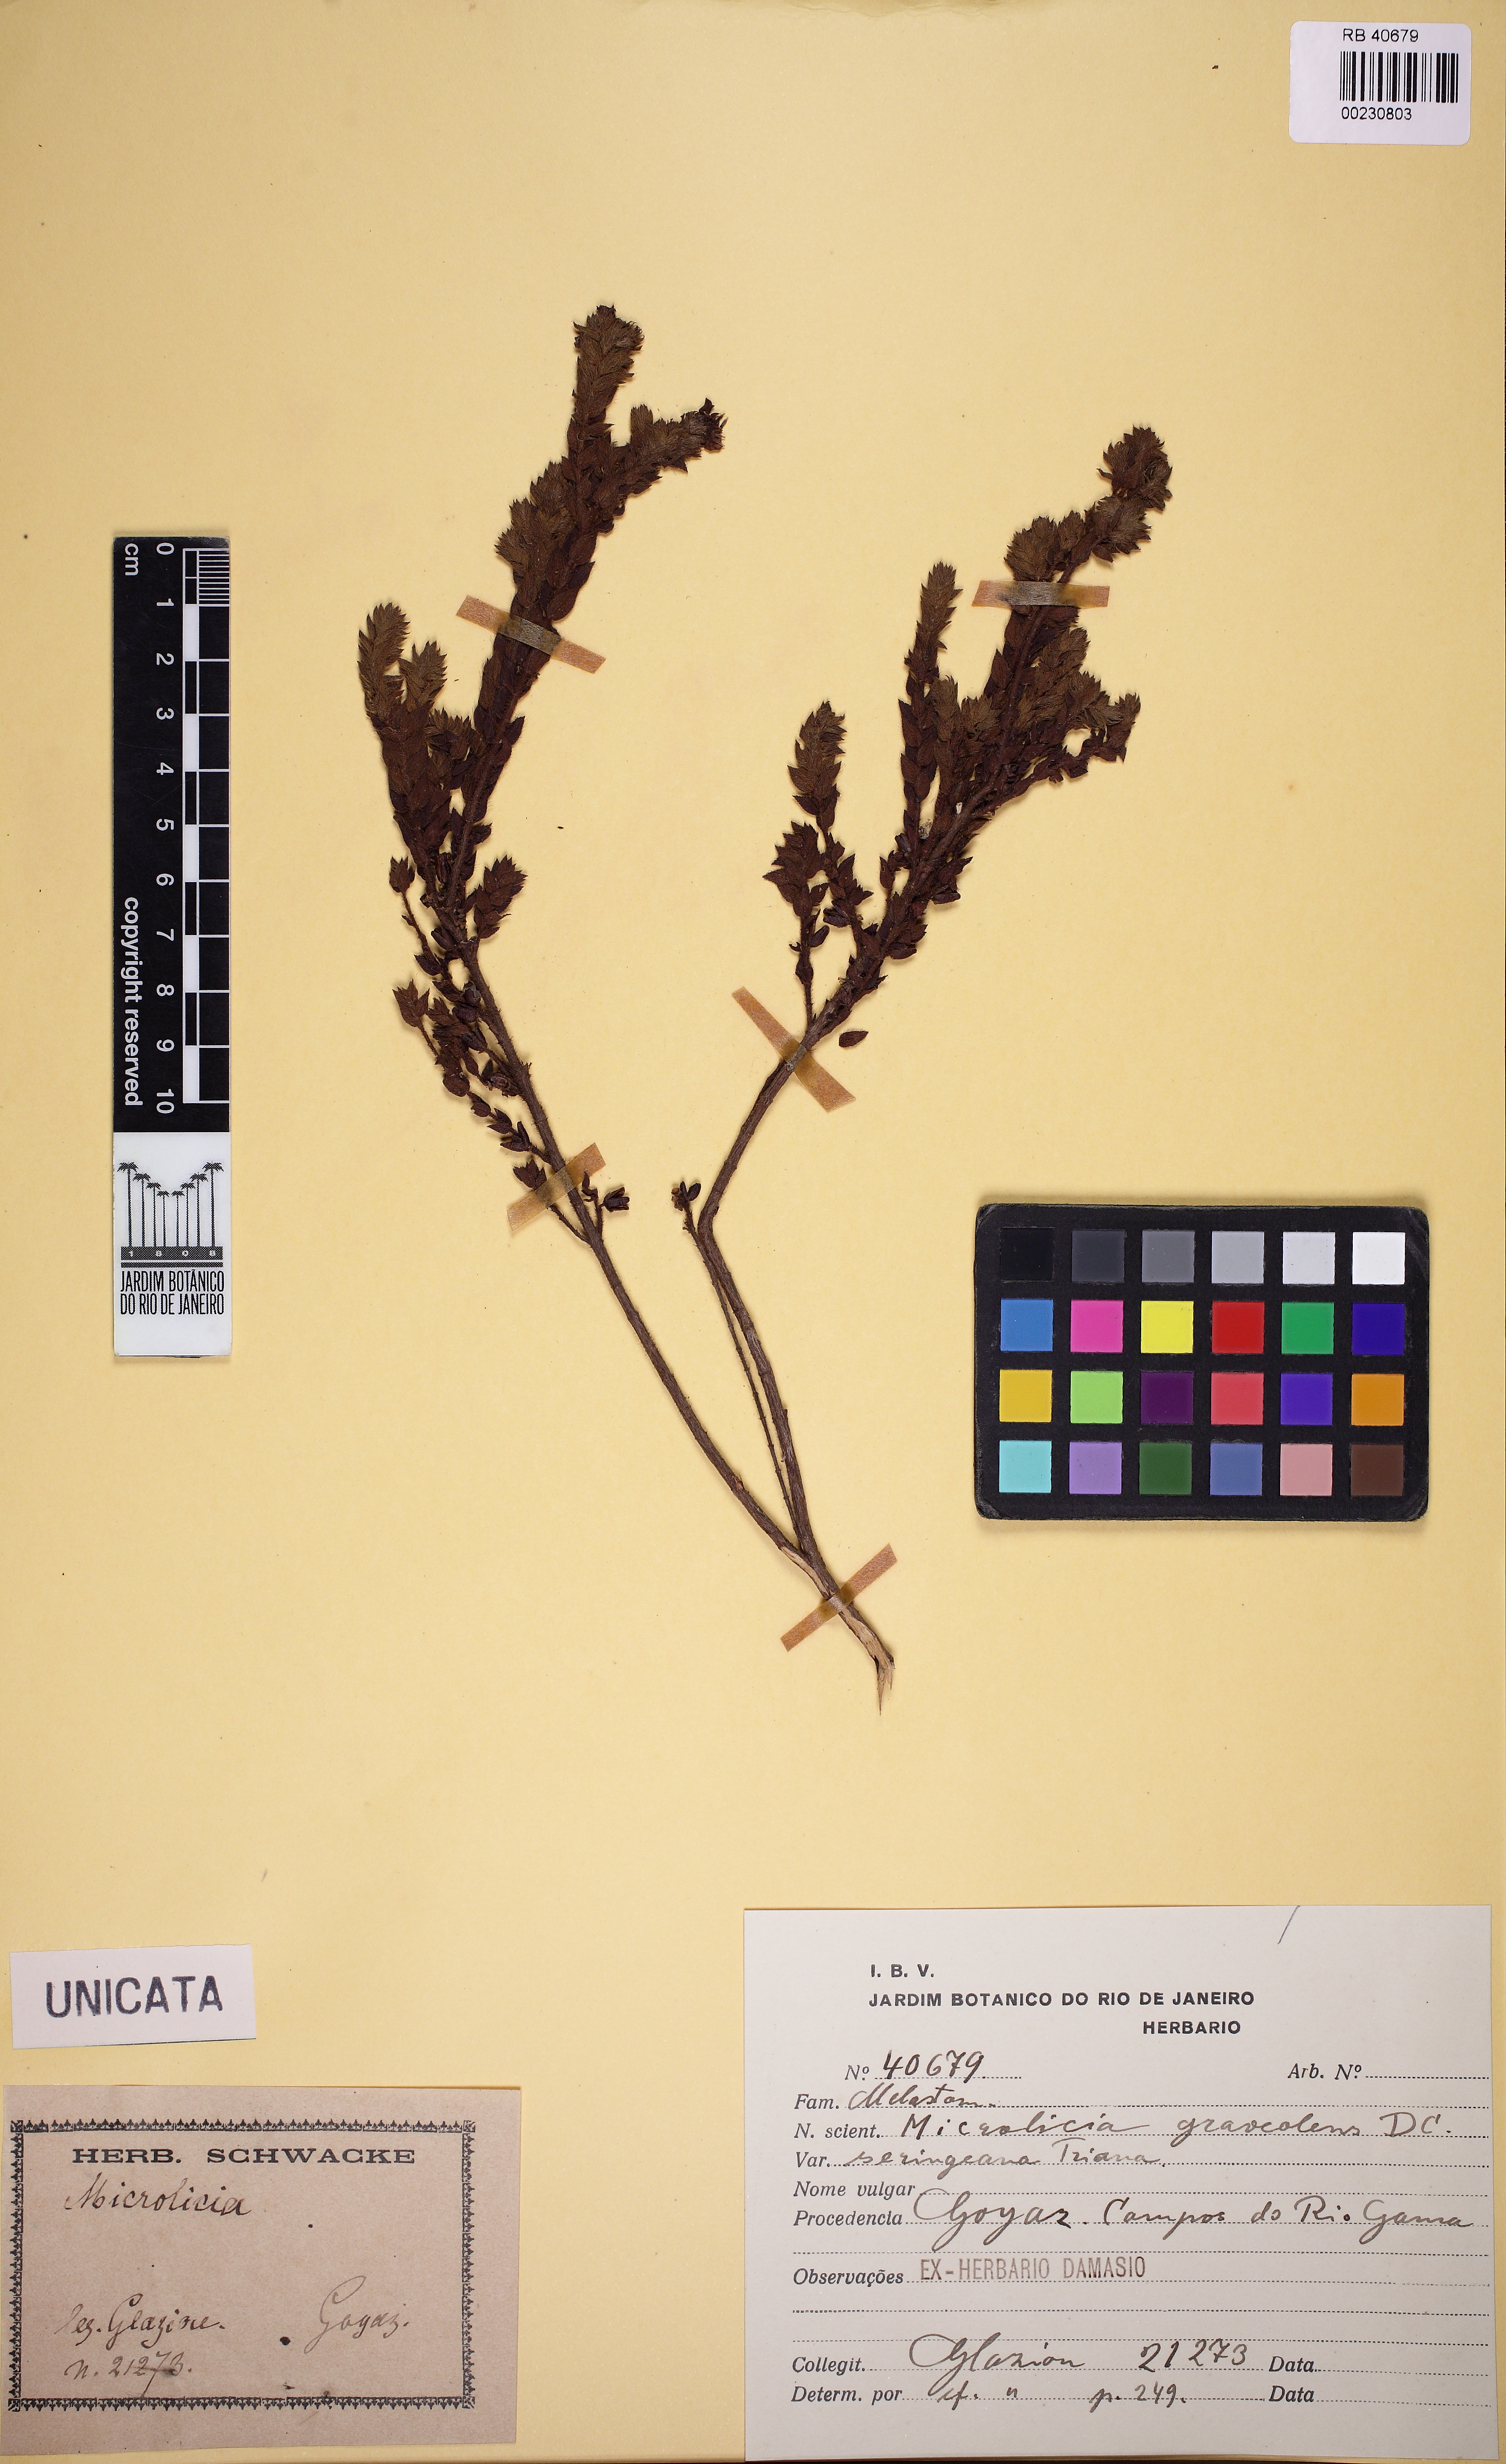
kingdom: Plantae
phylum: Tracheophyta
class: Magnoliopsida
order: Myrtales
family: Melastomataceae
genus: Microlicia
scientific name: Microlicia graveolens
